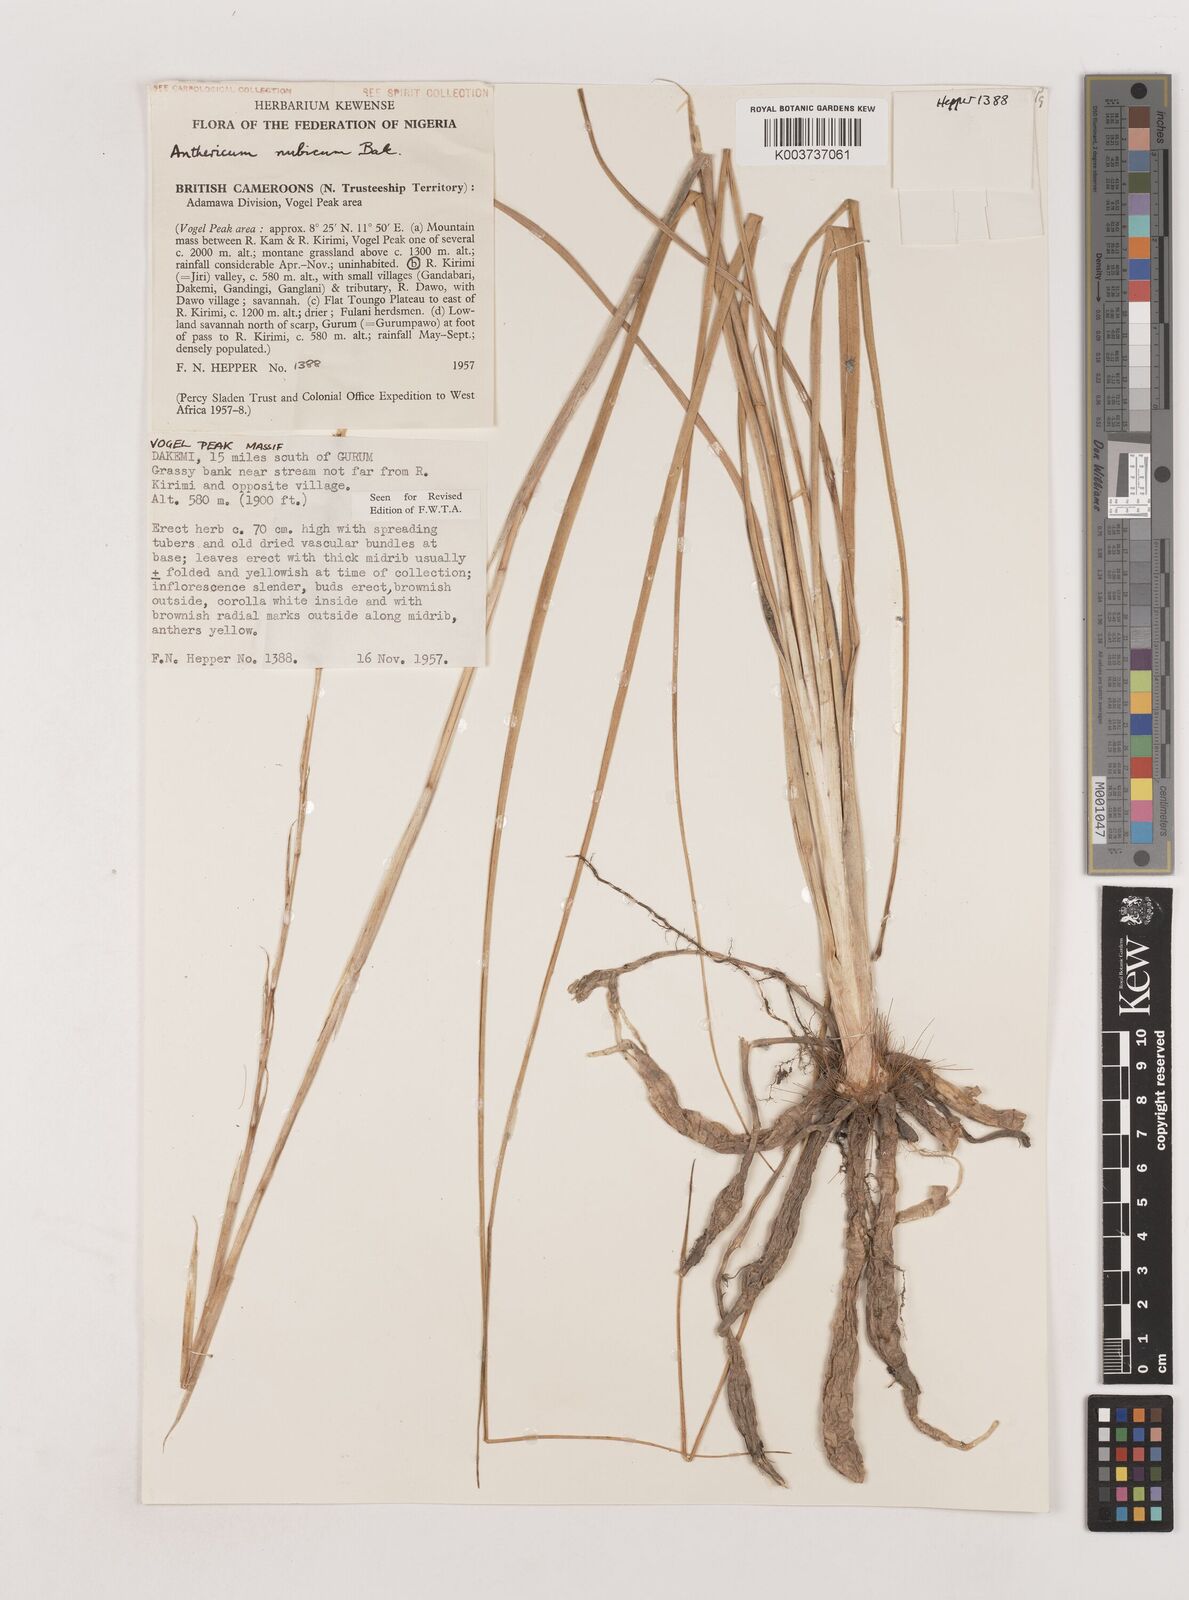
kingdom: Plantae
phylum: Tracheophyta
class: Liliopsida
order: Asparagales
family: Asparagaceae
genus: Chlorophytum
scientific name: Chlorophytum nubicum
